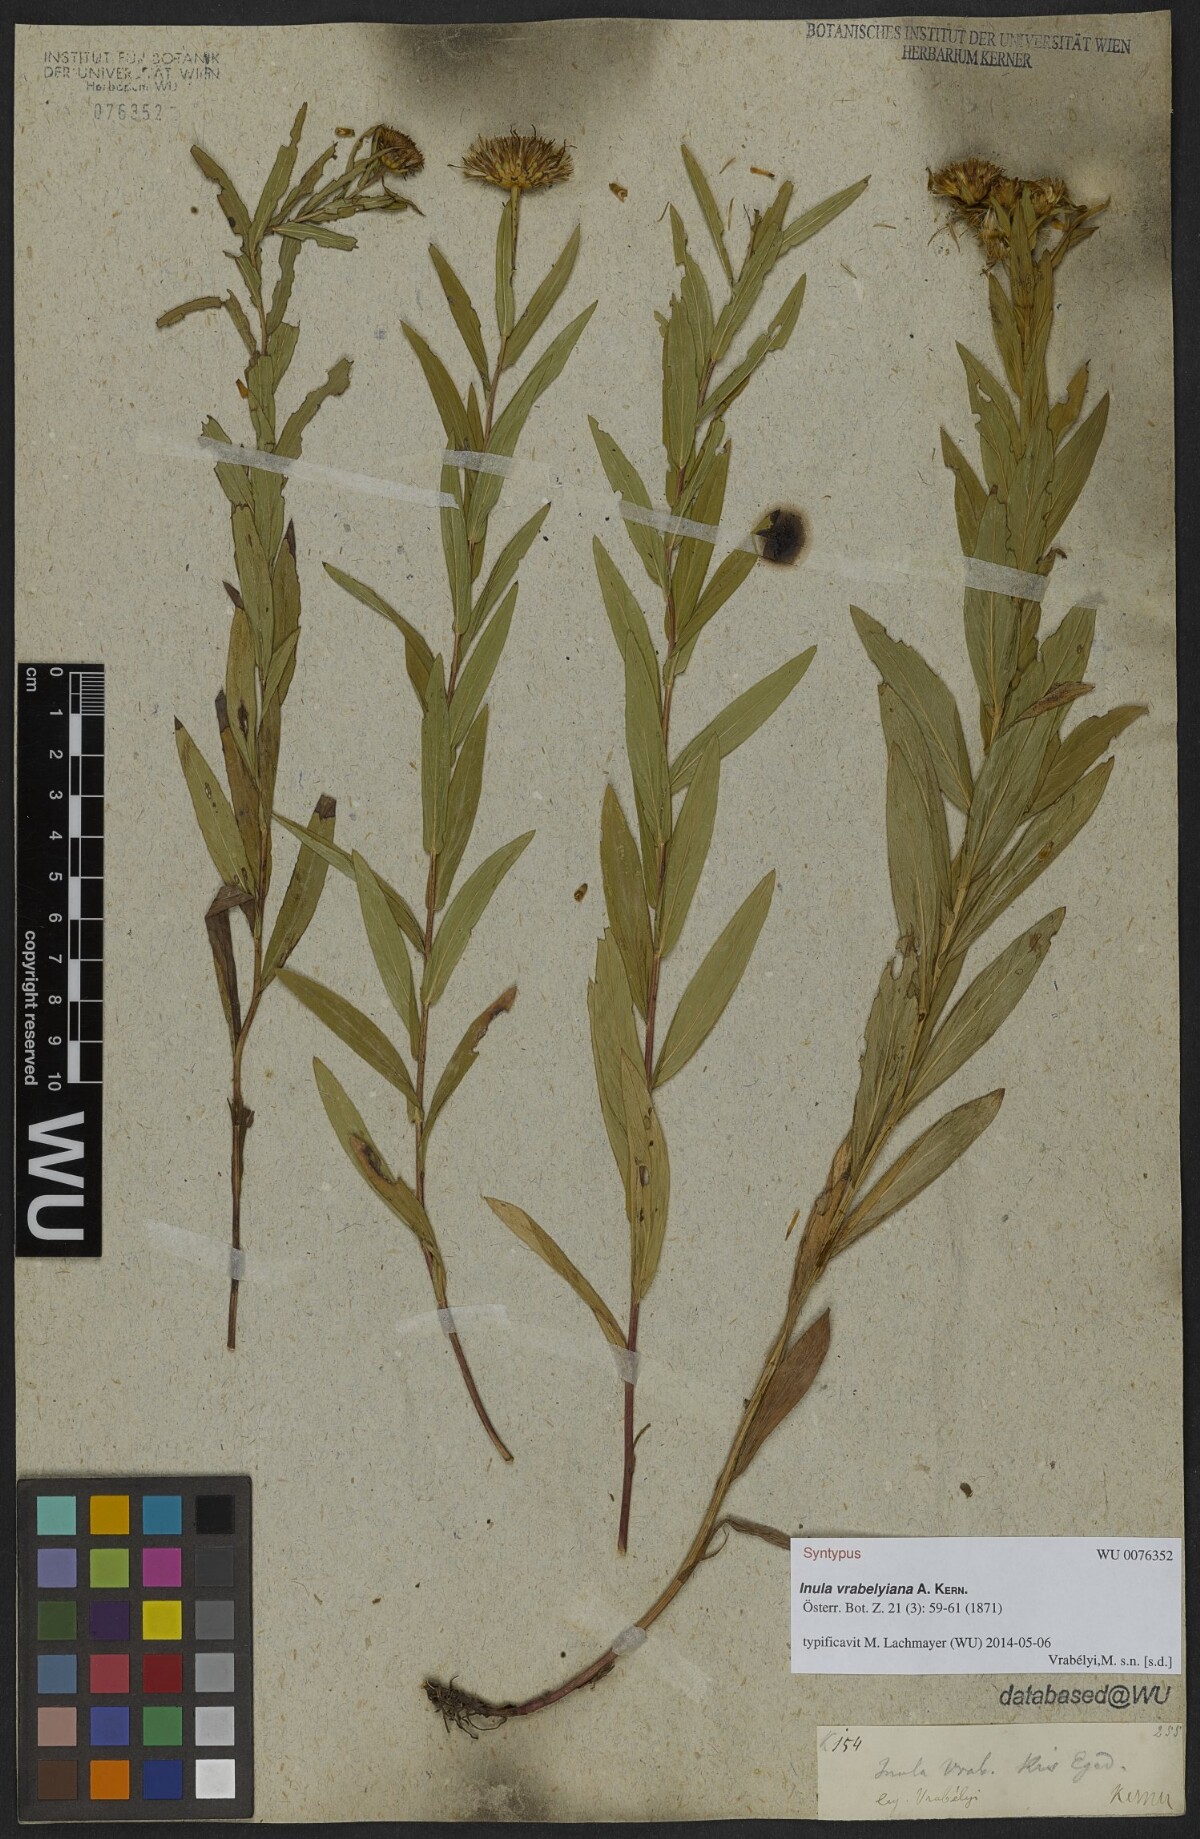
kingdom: Plantae
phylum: Tracheophyta
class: Magnoliopsida
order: Asterales
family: Asteraceae
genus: Pentanema
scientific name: Pentanema strictum
